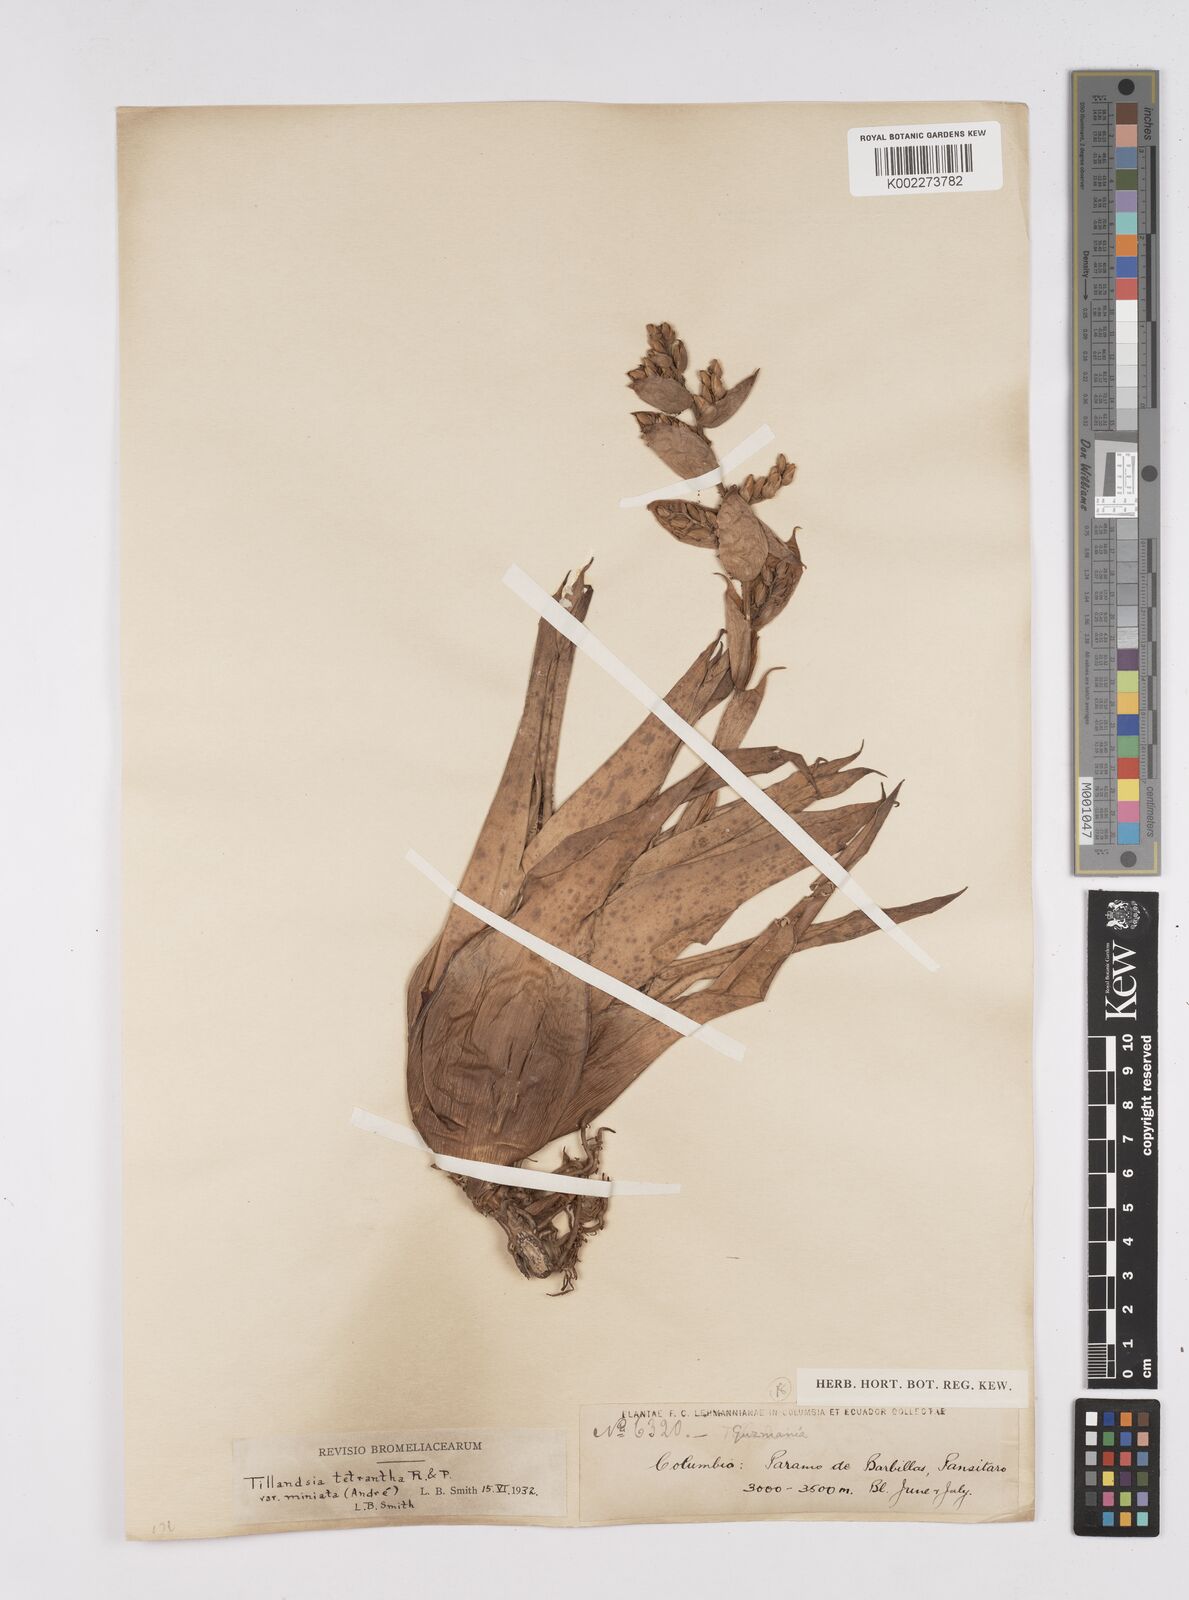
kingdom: Plantae
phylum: Tracheophyta
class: Liliopsida
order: Poales
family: Bromeliaceae
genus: Racinaea
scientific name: Racinaea tetrantha
